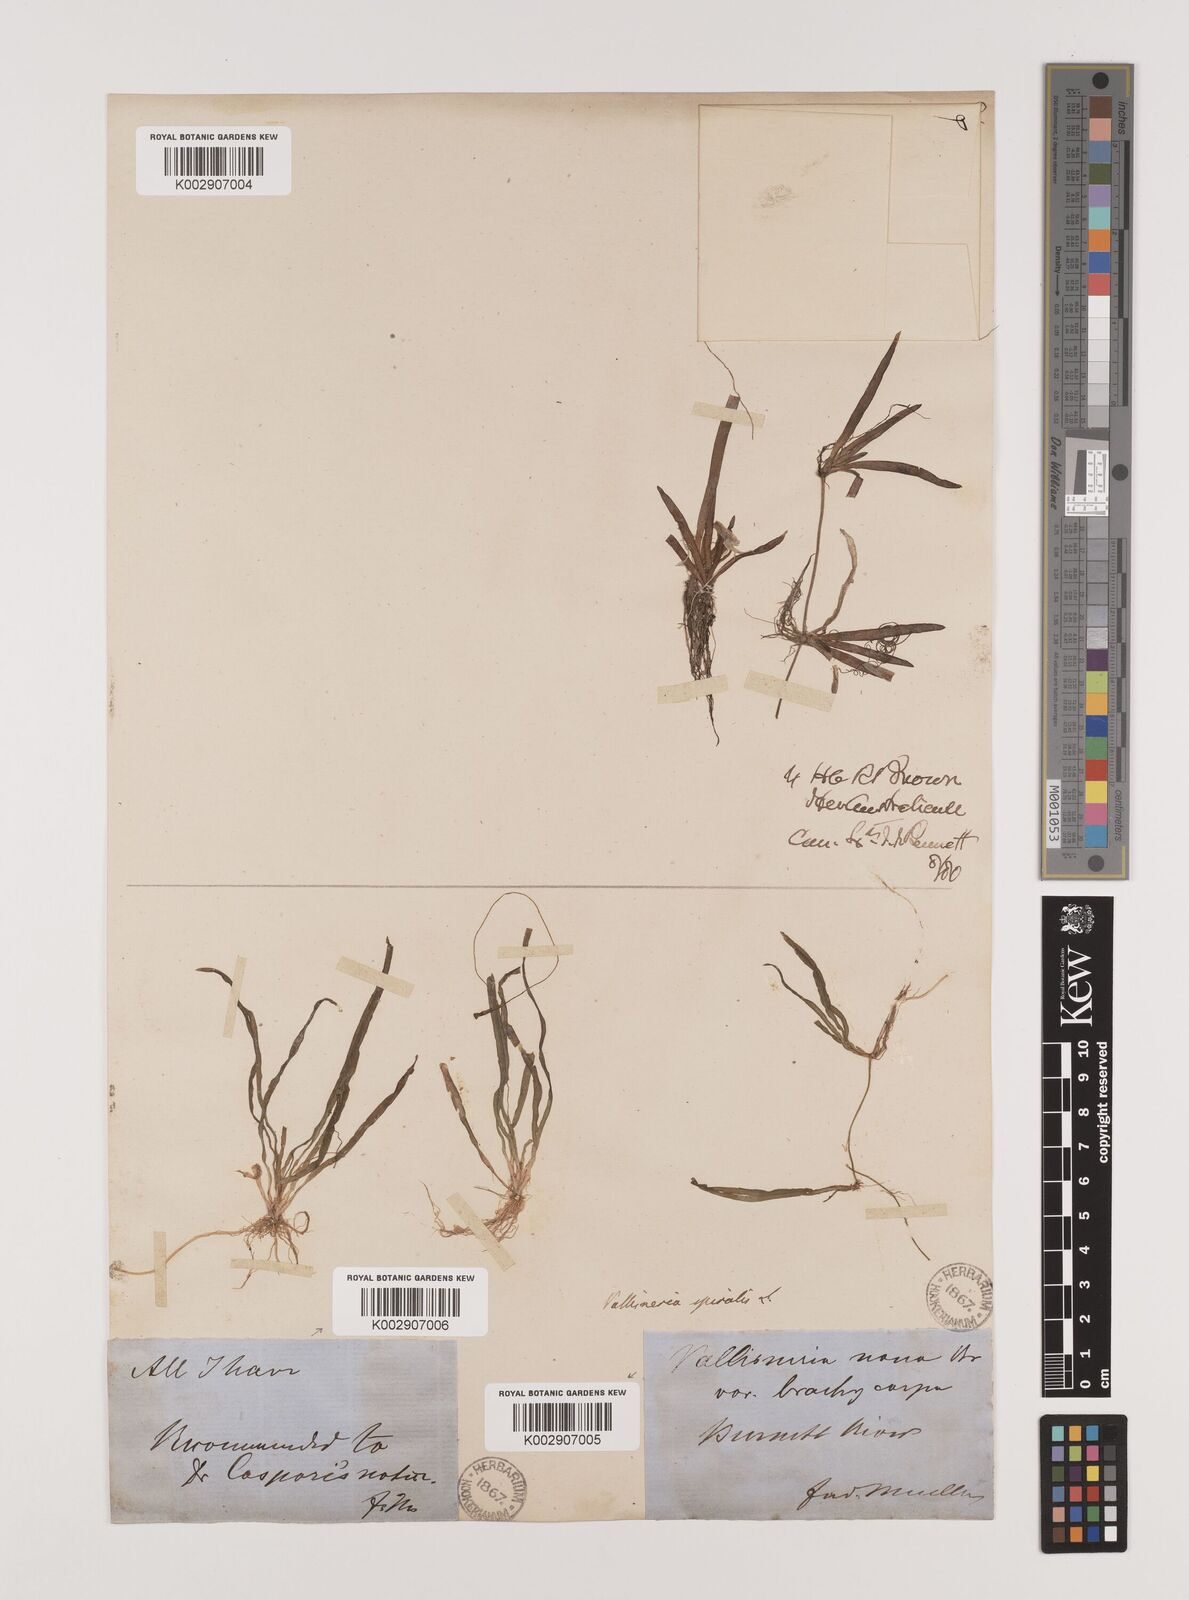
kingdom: Plantae
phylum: Tracheophyta
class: Liliopsida
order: Alismatales
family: Hydrocharitaceae
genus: Vallisneria
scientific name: Vallisneria spiralis
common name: Tapegrass
